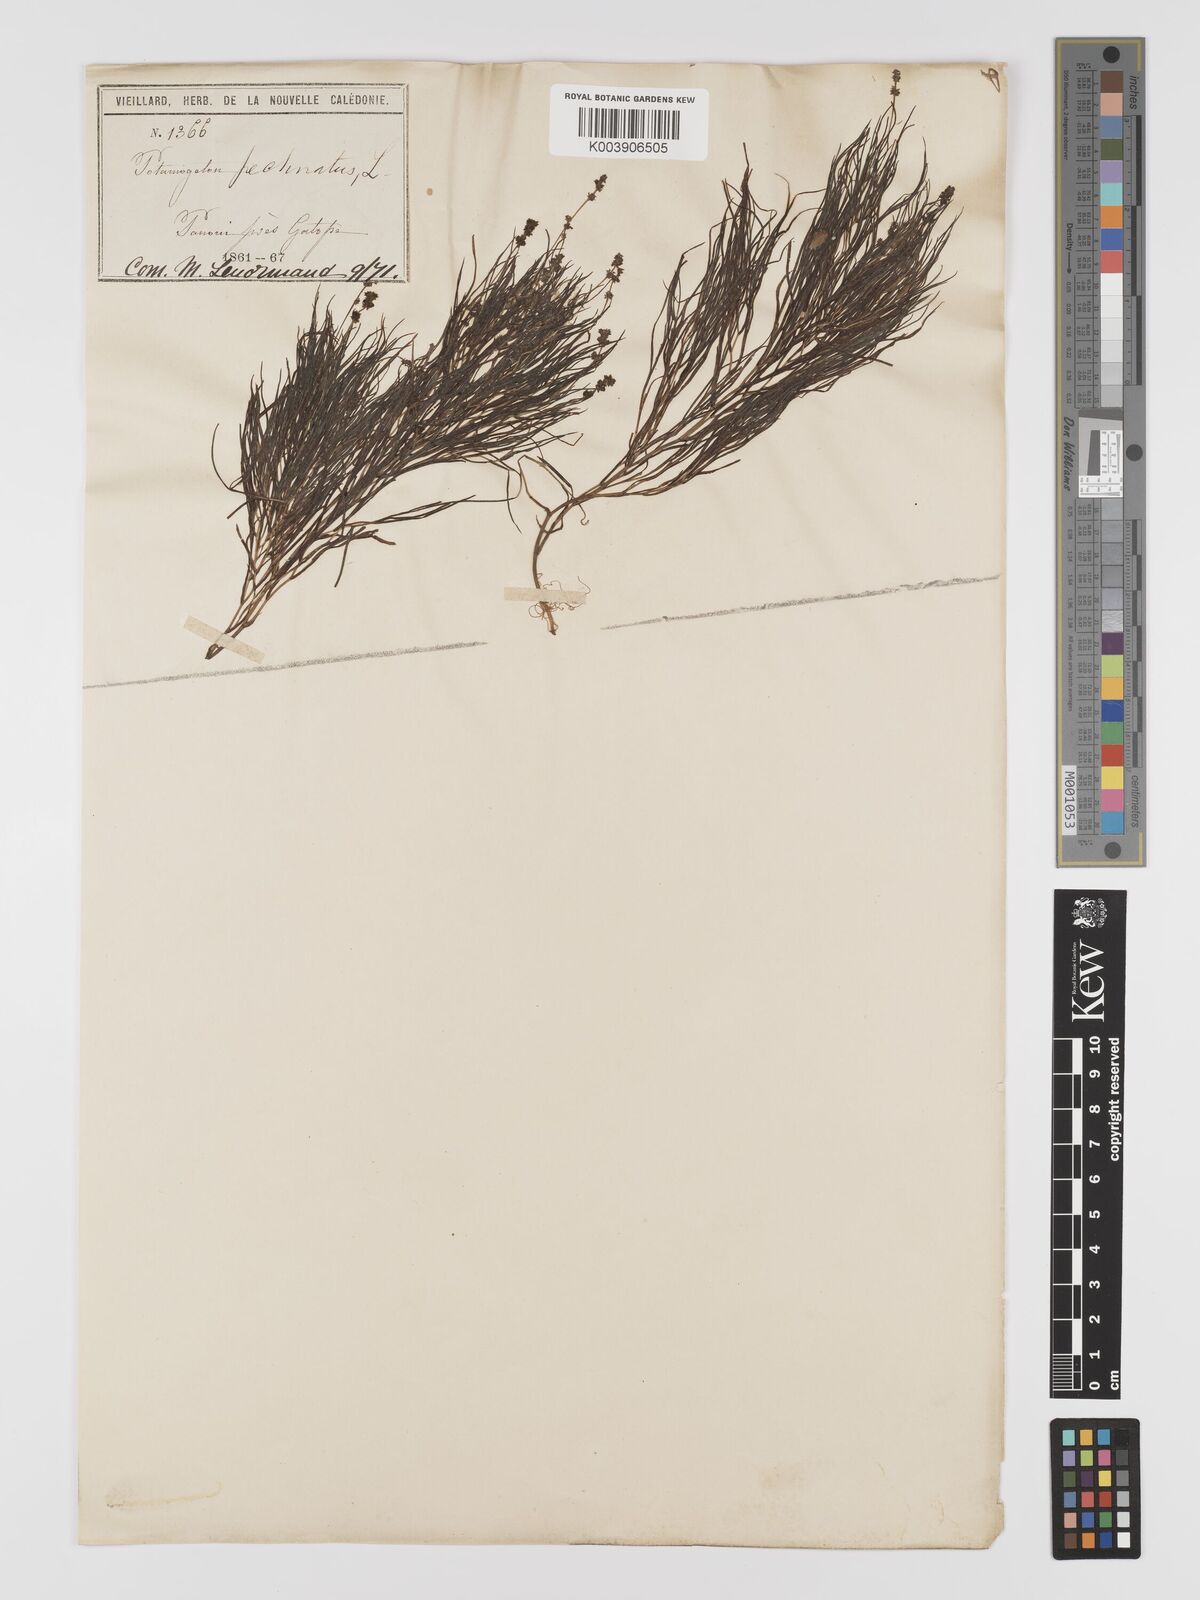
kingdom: Plantae
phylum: Tracheophyta
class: Liliopsida
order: Alismatales
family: Potamogetonaceae
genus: Stuckenia
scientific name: Stuckenia pectinata
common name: Sago pondweed
